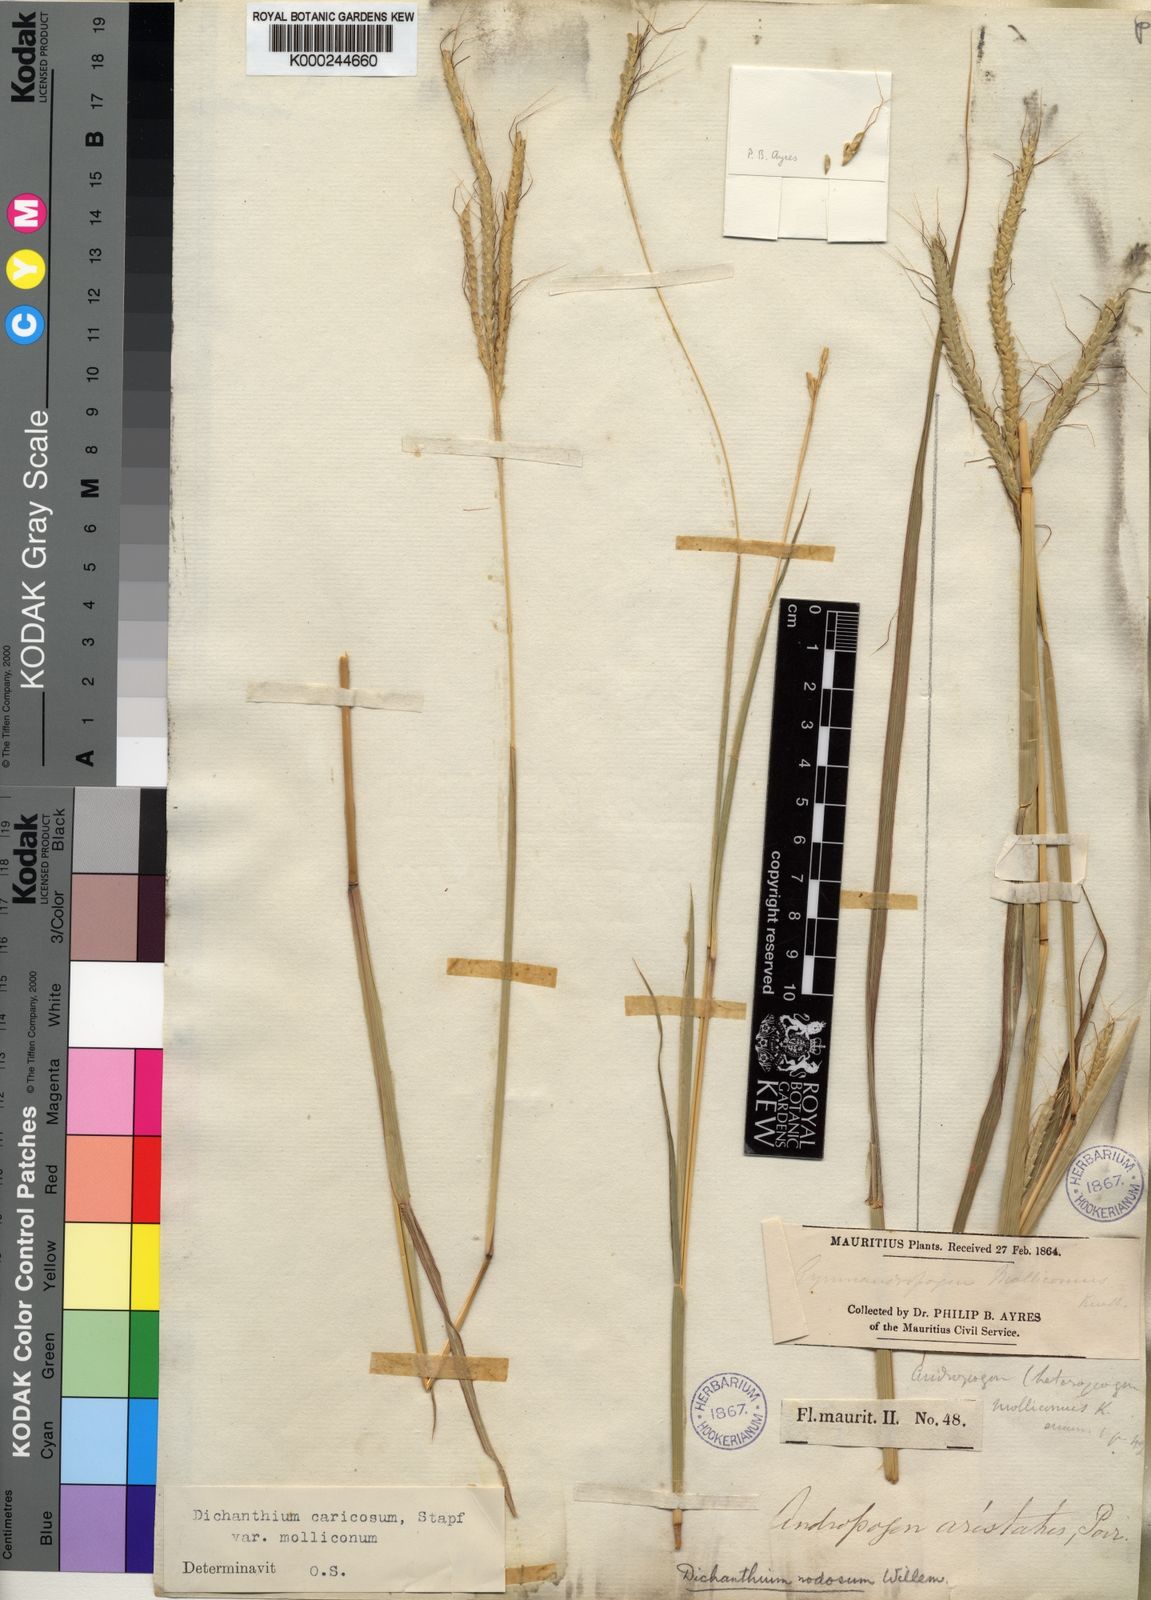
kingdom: Plantae
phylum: Tracheophyta
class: Liliopsida
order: Poales
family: Poaceae
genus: Dichanthium
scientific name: Dichanthium aristatum
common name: Angleton bluestem
